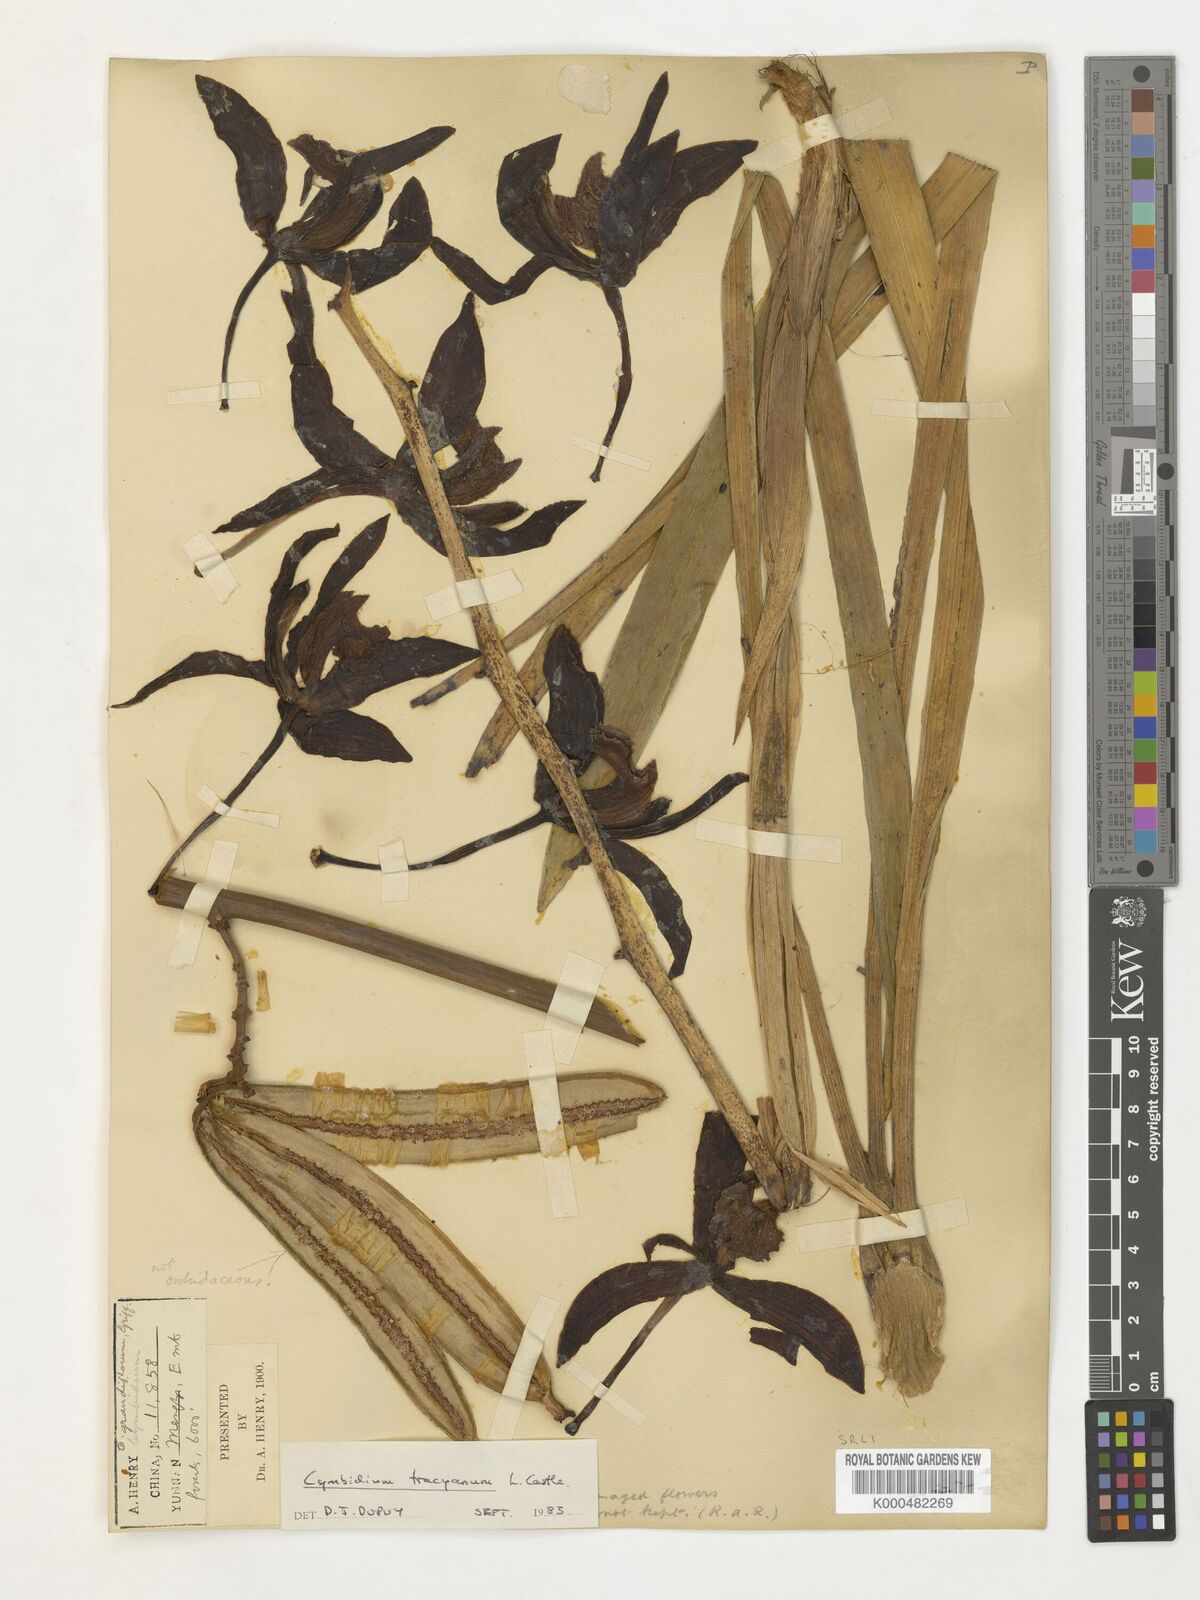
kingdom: Plantae
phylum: Tracheophyta
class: Liliopsida
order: Asparagales
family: Orchidaceae
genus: Cymbidium
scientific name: Cymbidium
